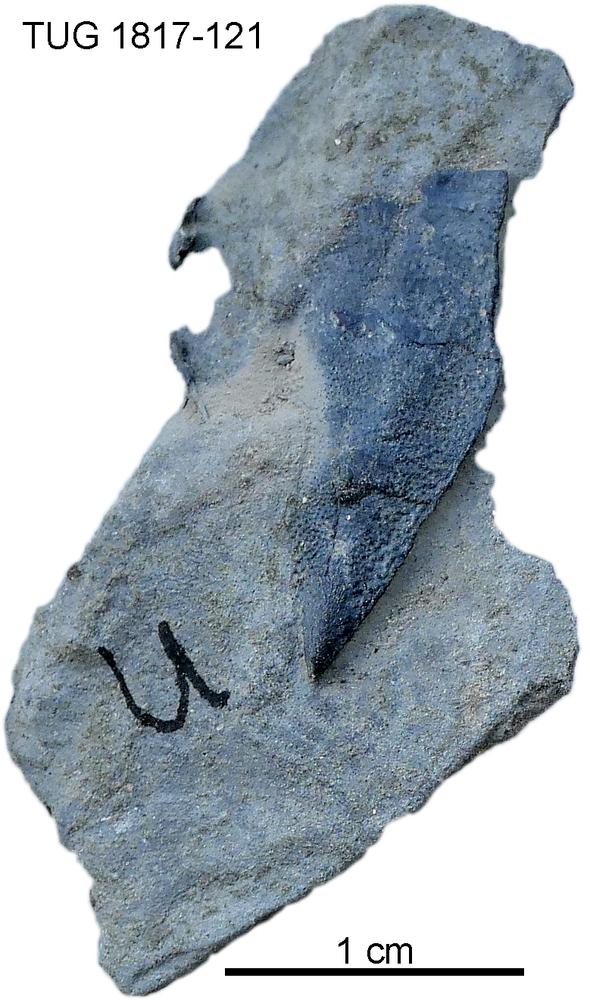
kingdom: Animalia
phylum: Chordata
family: Coccosteidae
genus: Millerosteus
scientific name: Millerosteus minor
